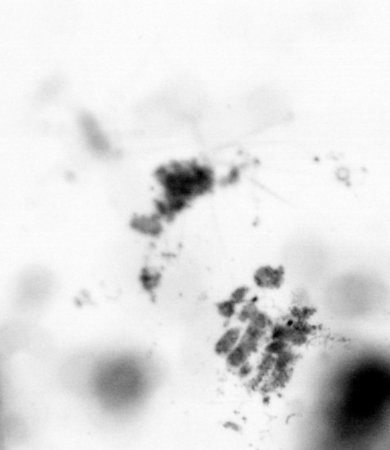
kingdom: Animalia
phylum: Chordata
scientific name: Chordata
